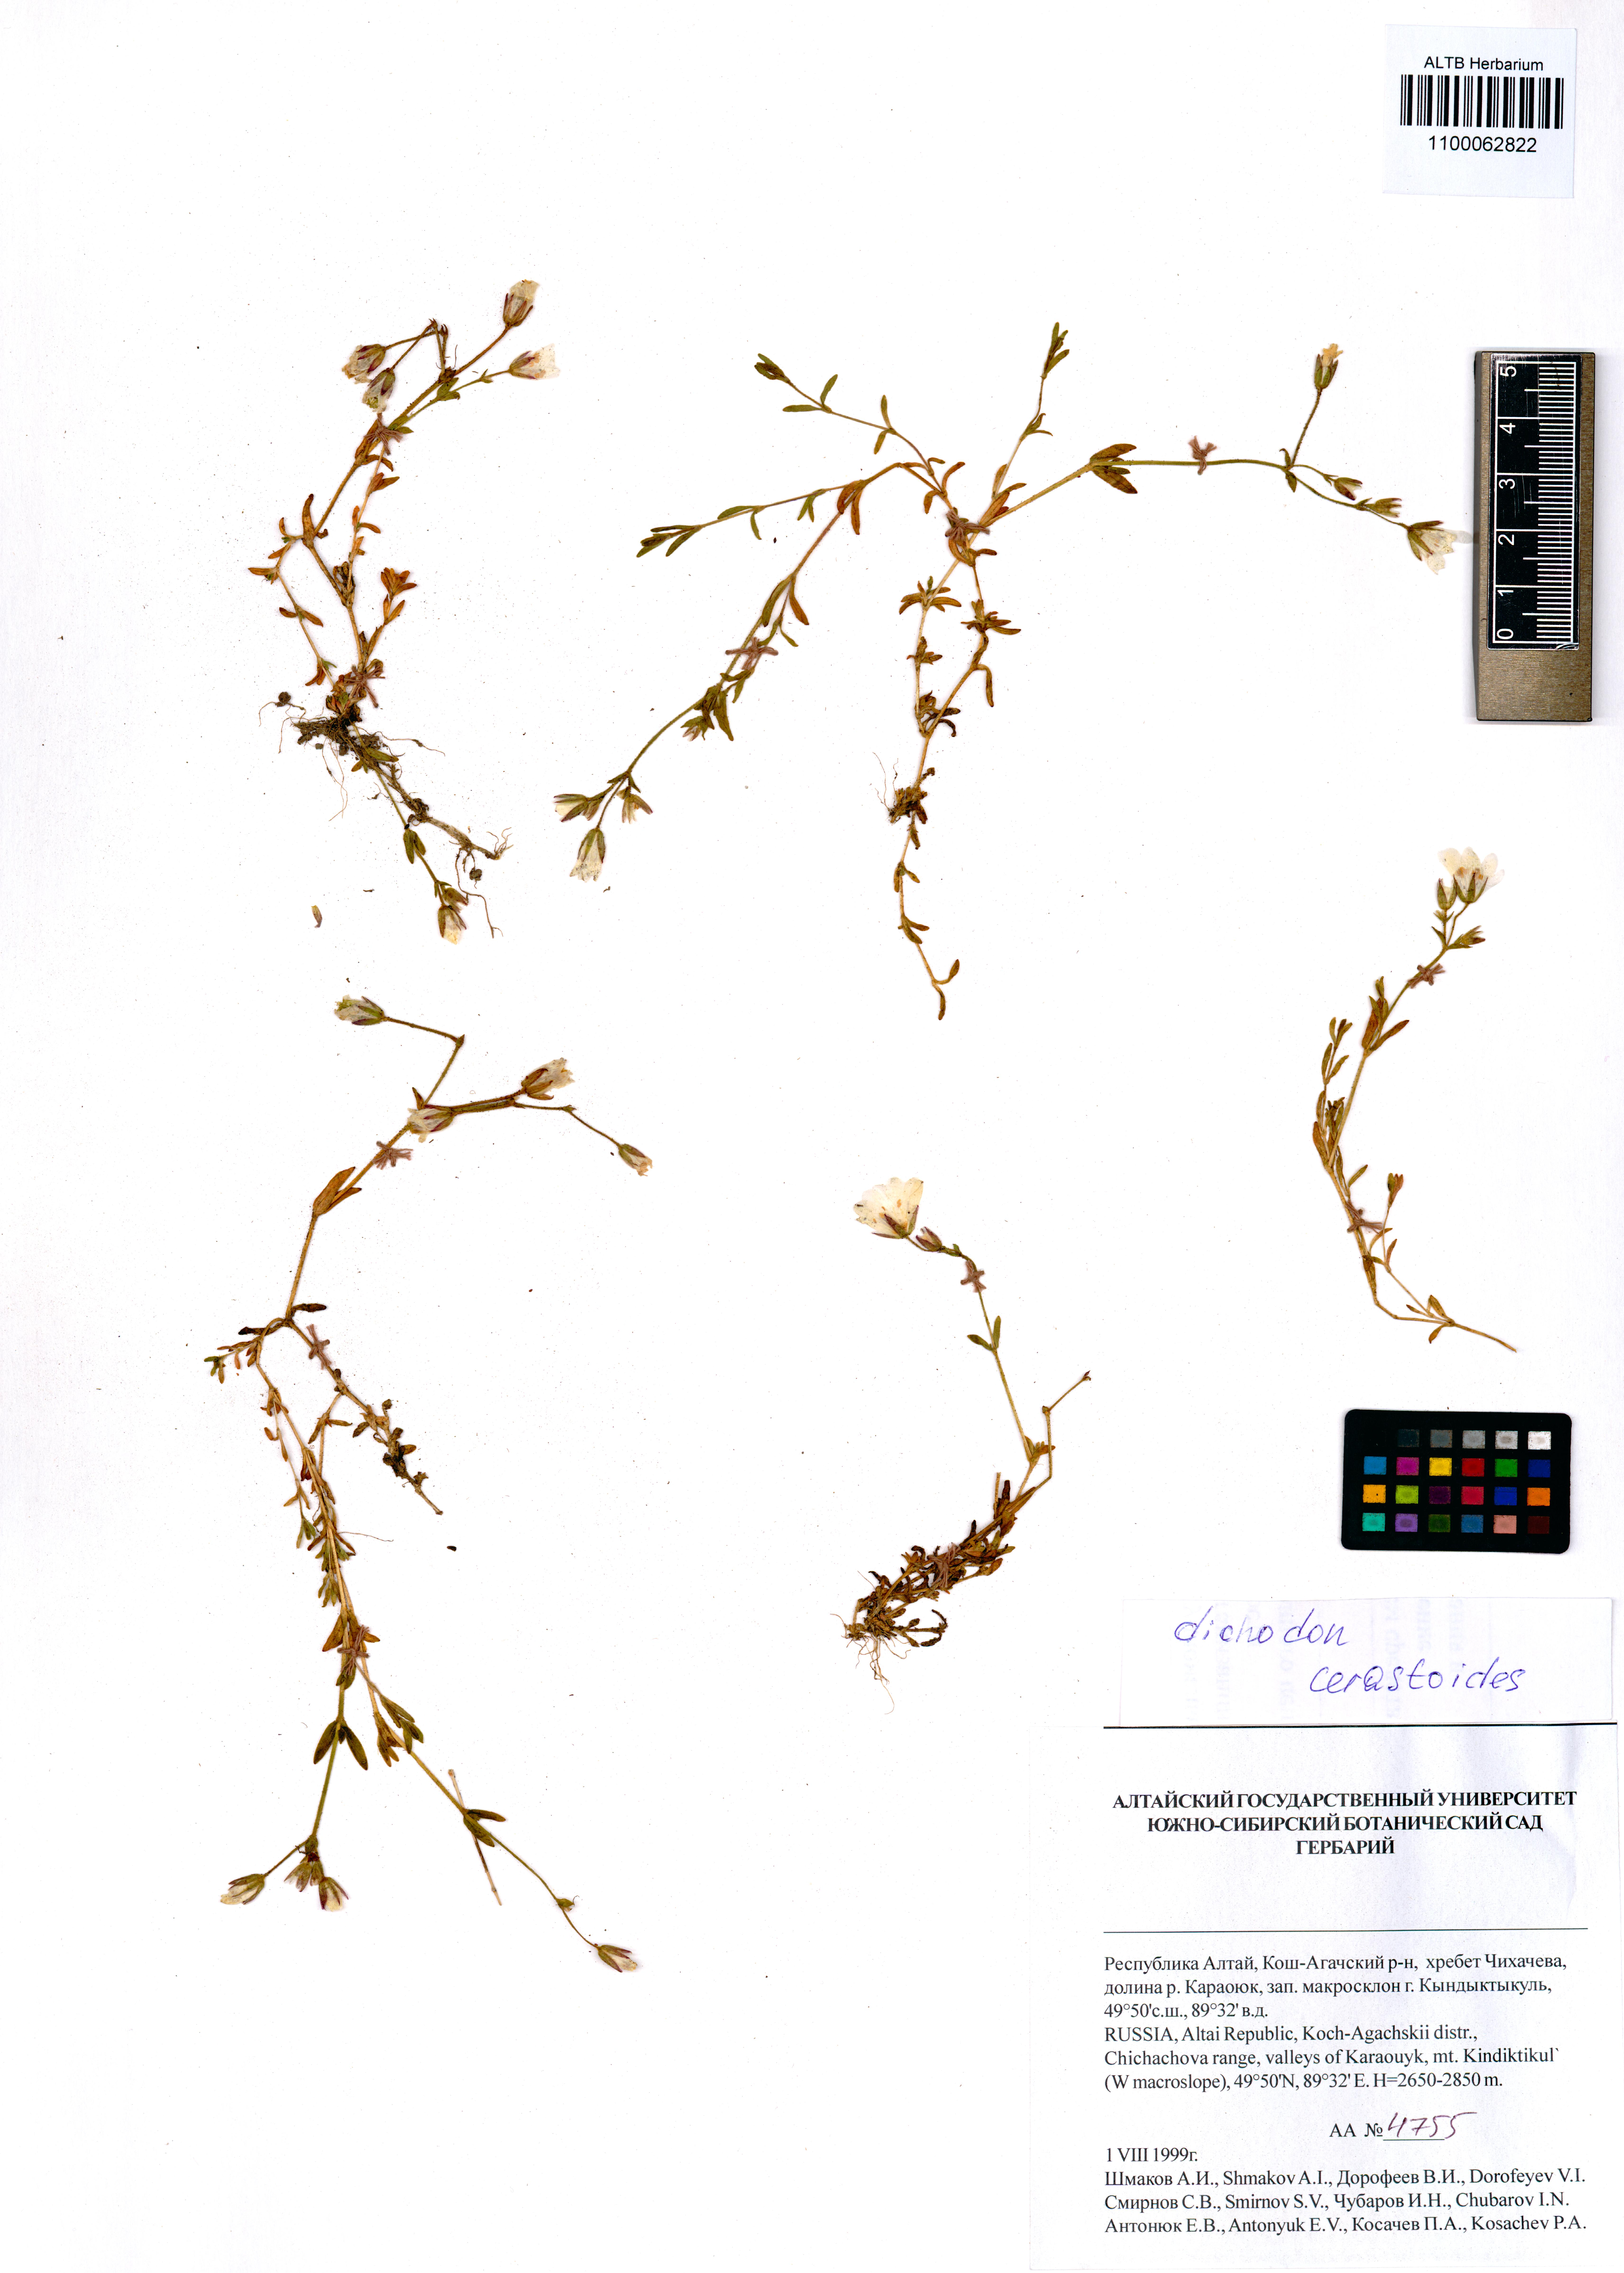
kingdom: Plantae
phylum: Tracheophyta
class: Magnoliopsida
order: Caryophyllales
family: Caryophyllaceae
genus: Dichodon
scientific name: Dichodon cerastoides
